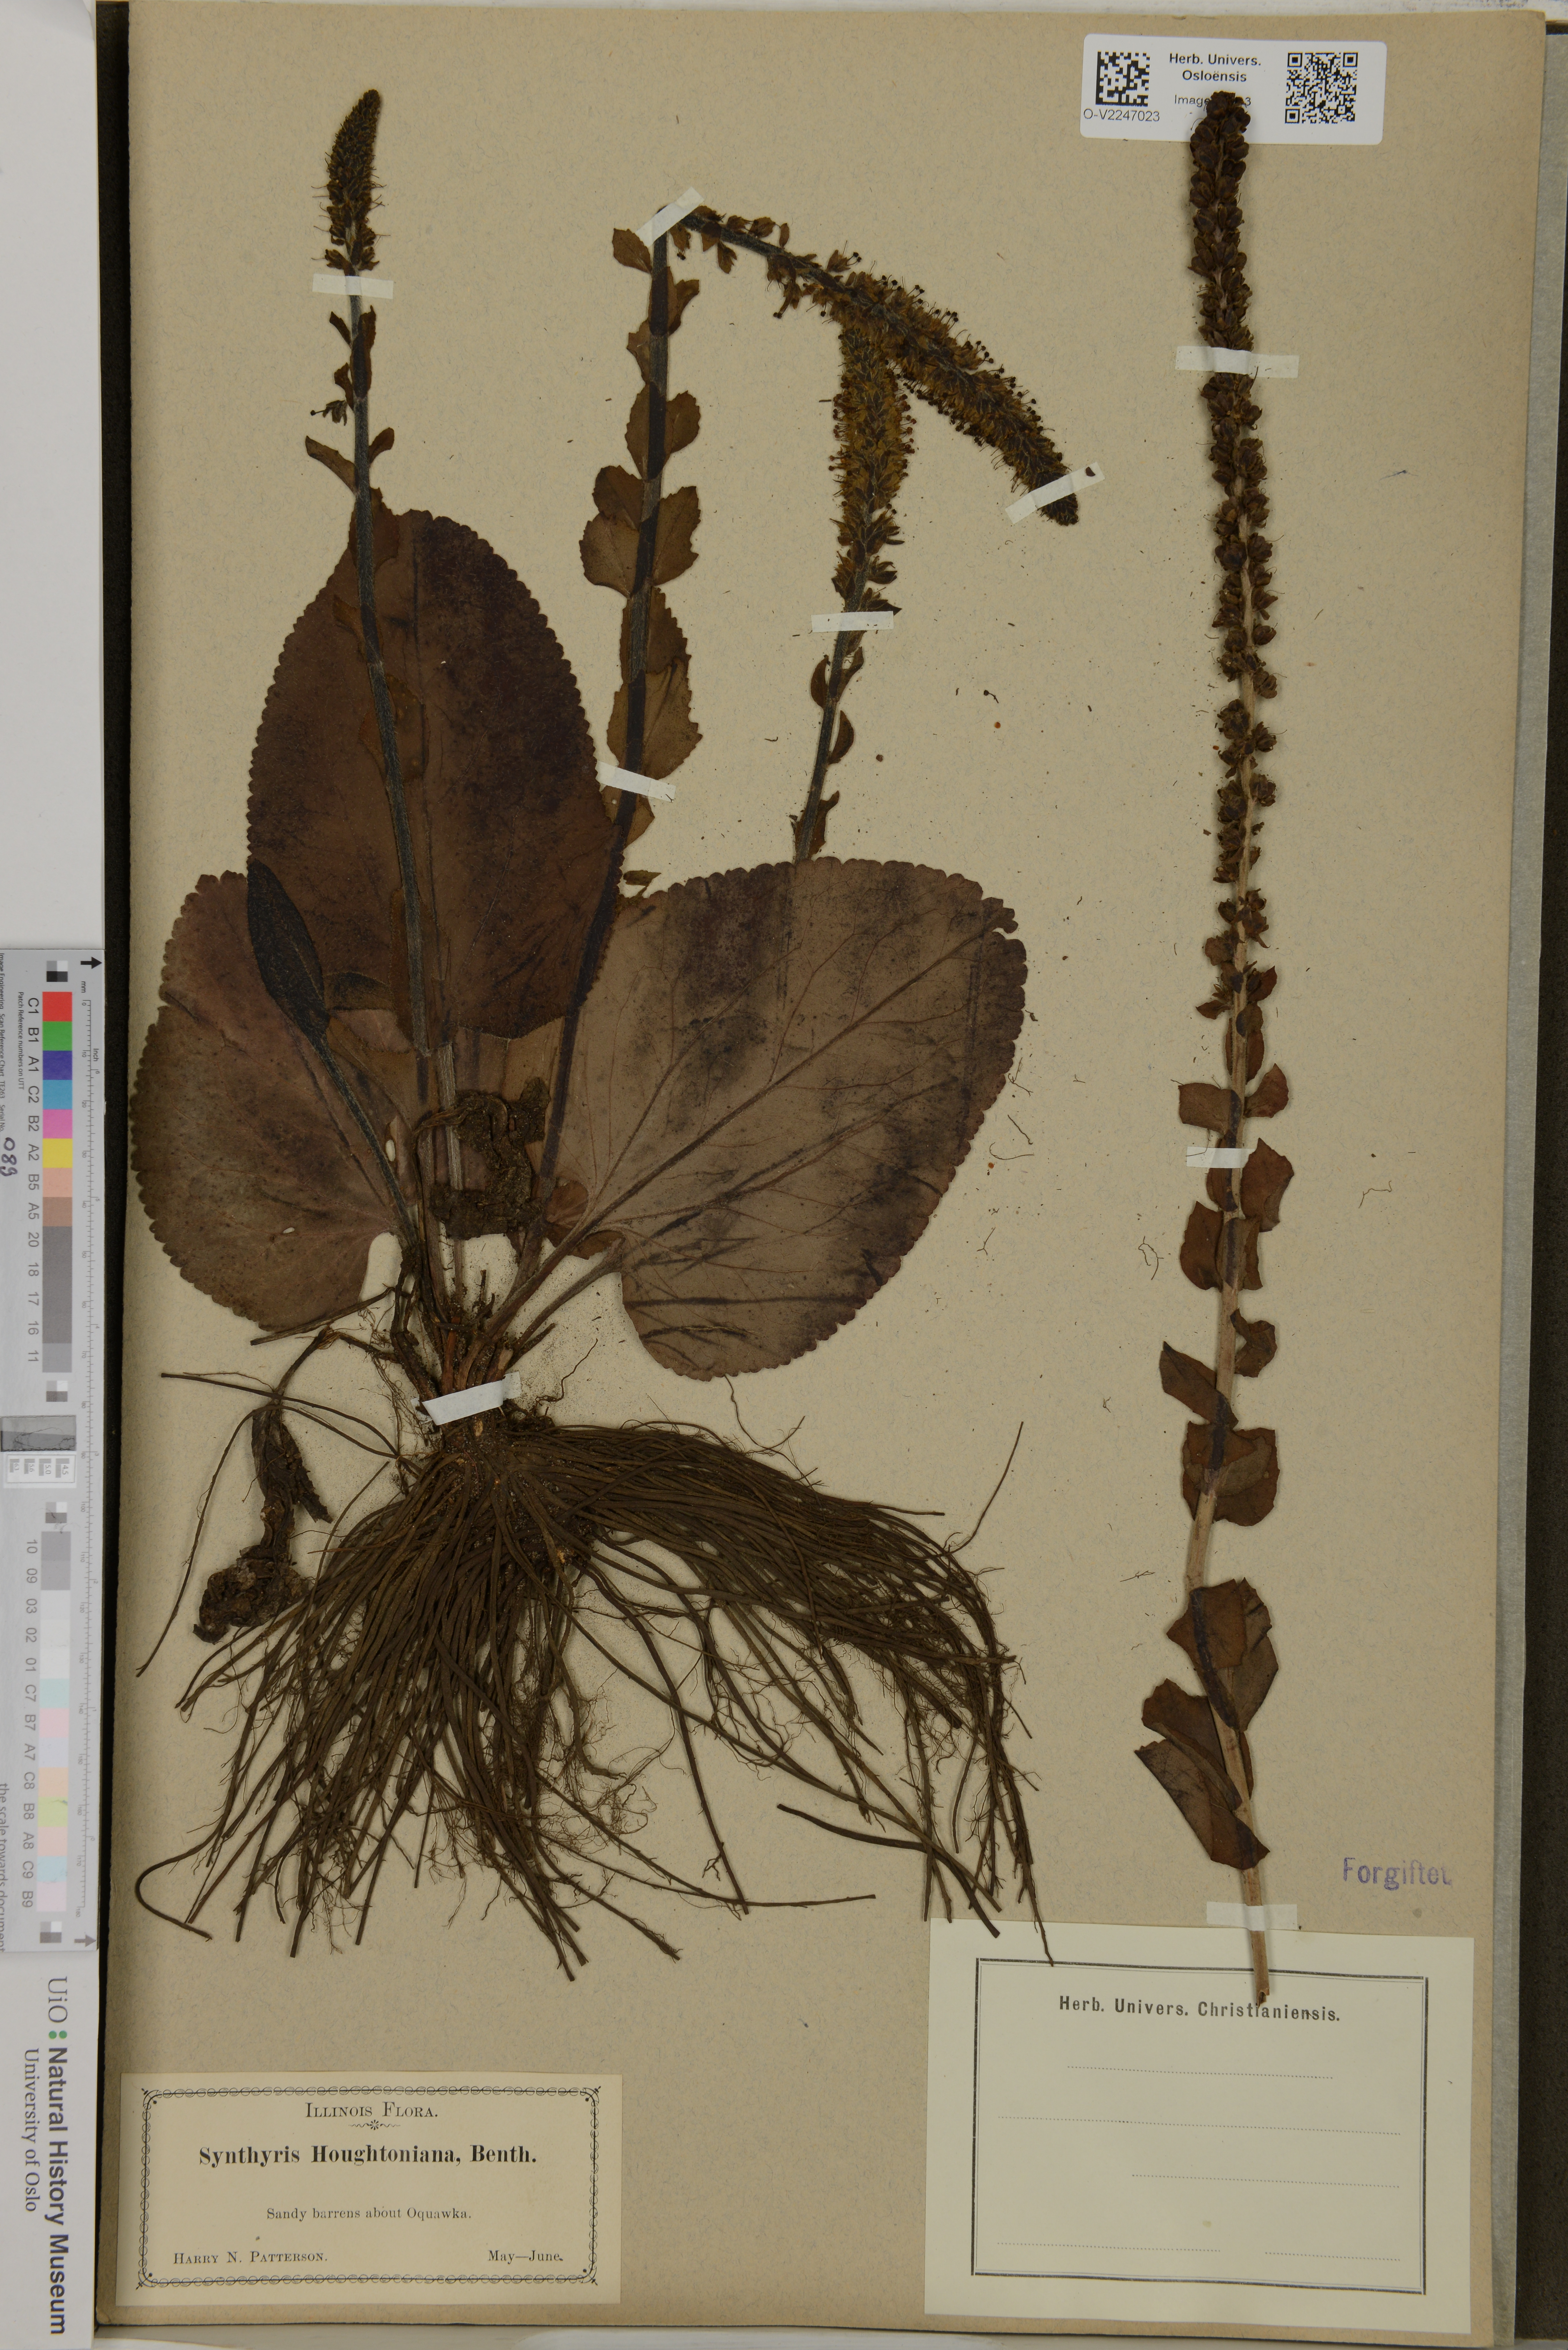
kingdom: Plantae
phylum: Tracheophyta
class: Magnoliopsida
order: Lamiales
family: Plantaginaceae
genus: Synthyris
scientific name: Synthyris bullii
